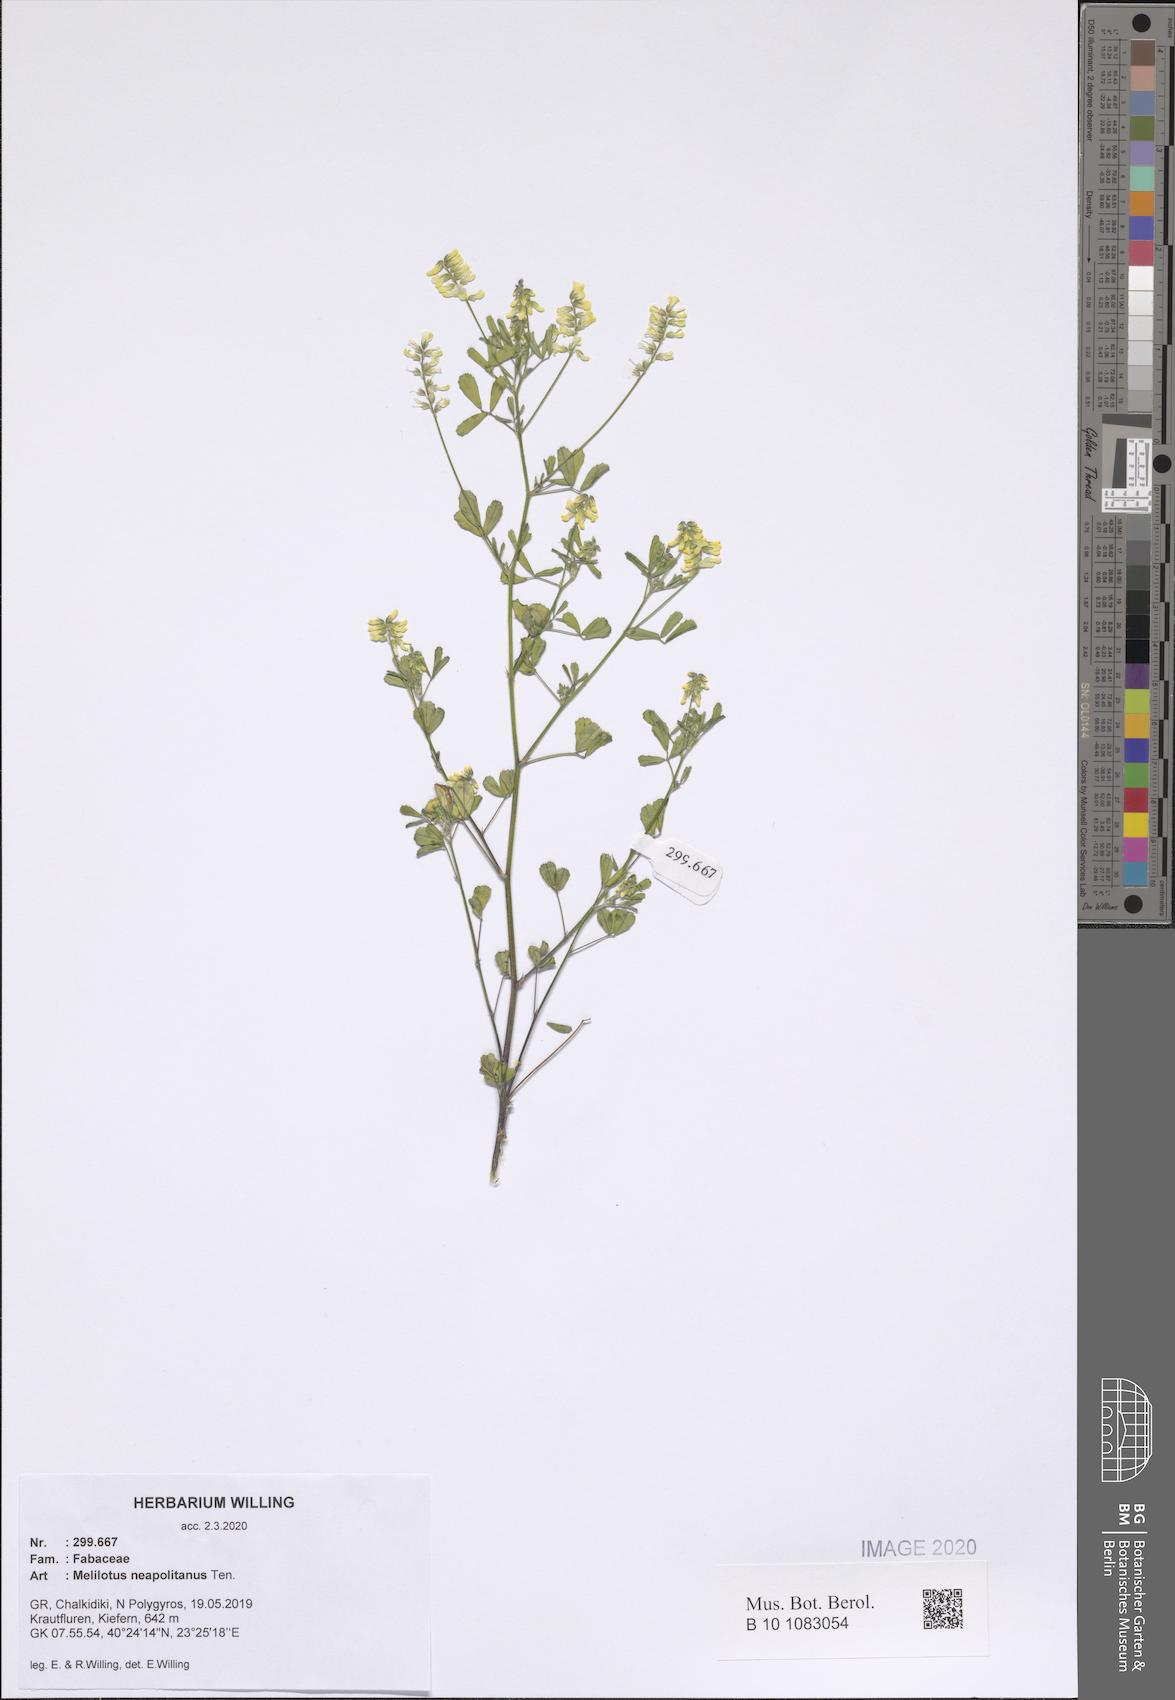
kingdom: Plantae
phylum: Tracheophyta
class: Magnoliopsida
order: Fabales
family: Fabaceae
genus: Melilotus
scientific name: Melilotus neapolitanus
